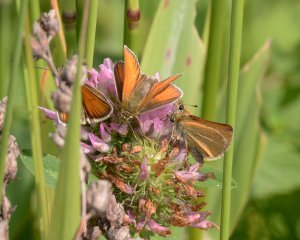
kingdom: Animalia
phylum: Arthropoda
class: Insecta
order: Lepidoptera
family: Hesperiidae
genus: Thymelicus
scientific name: Thymelicus lineola
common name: European Skipper
